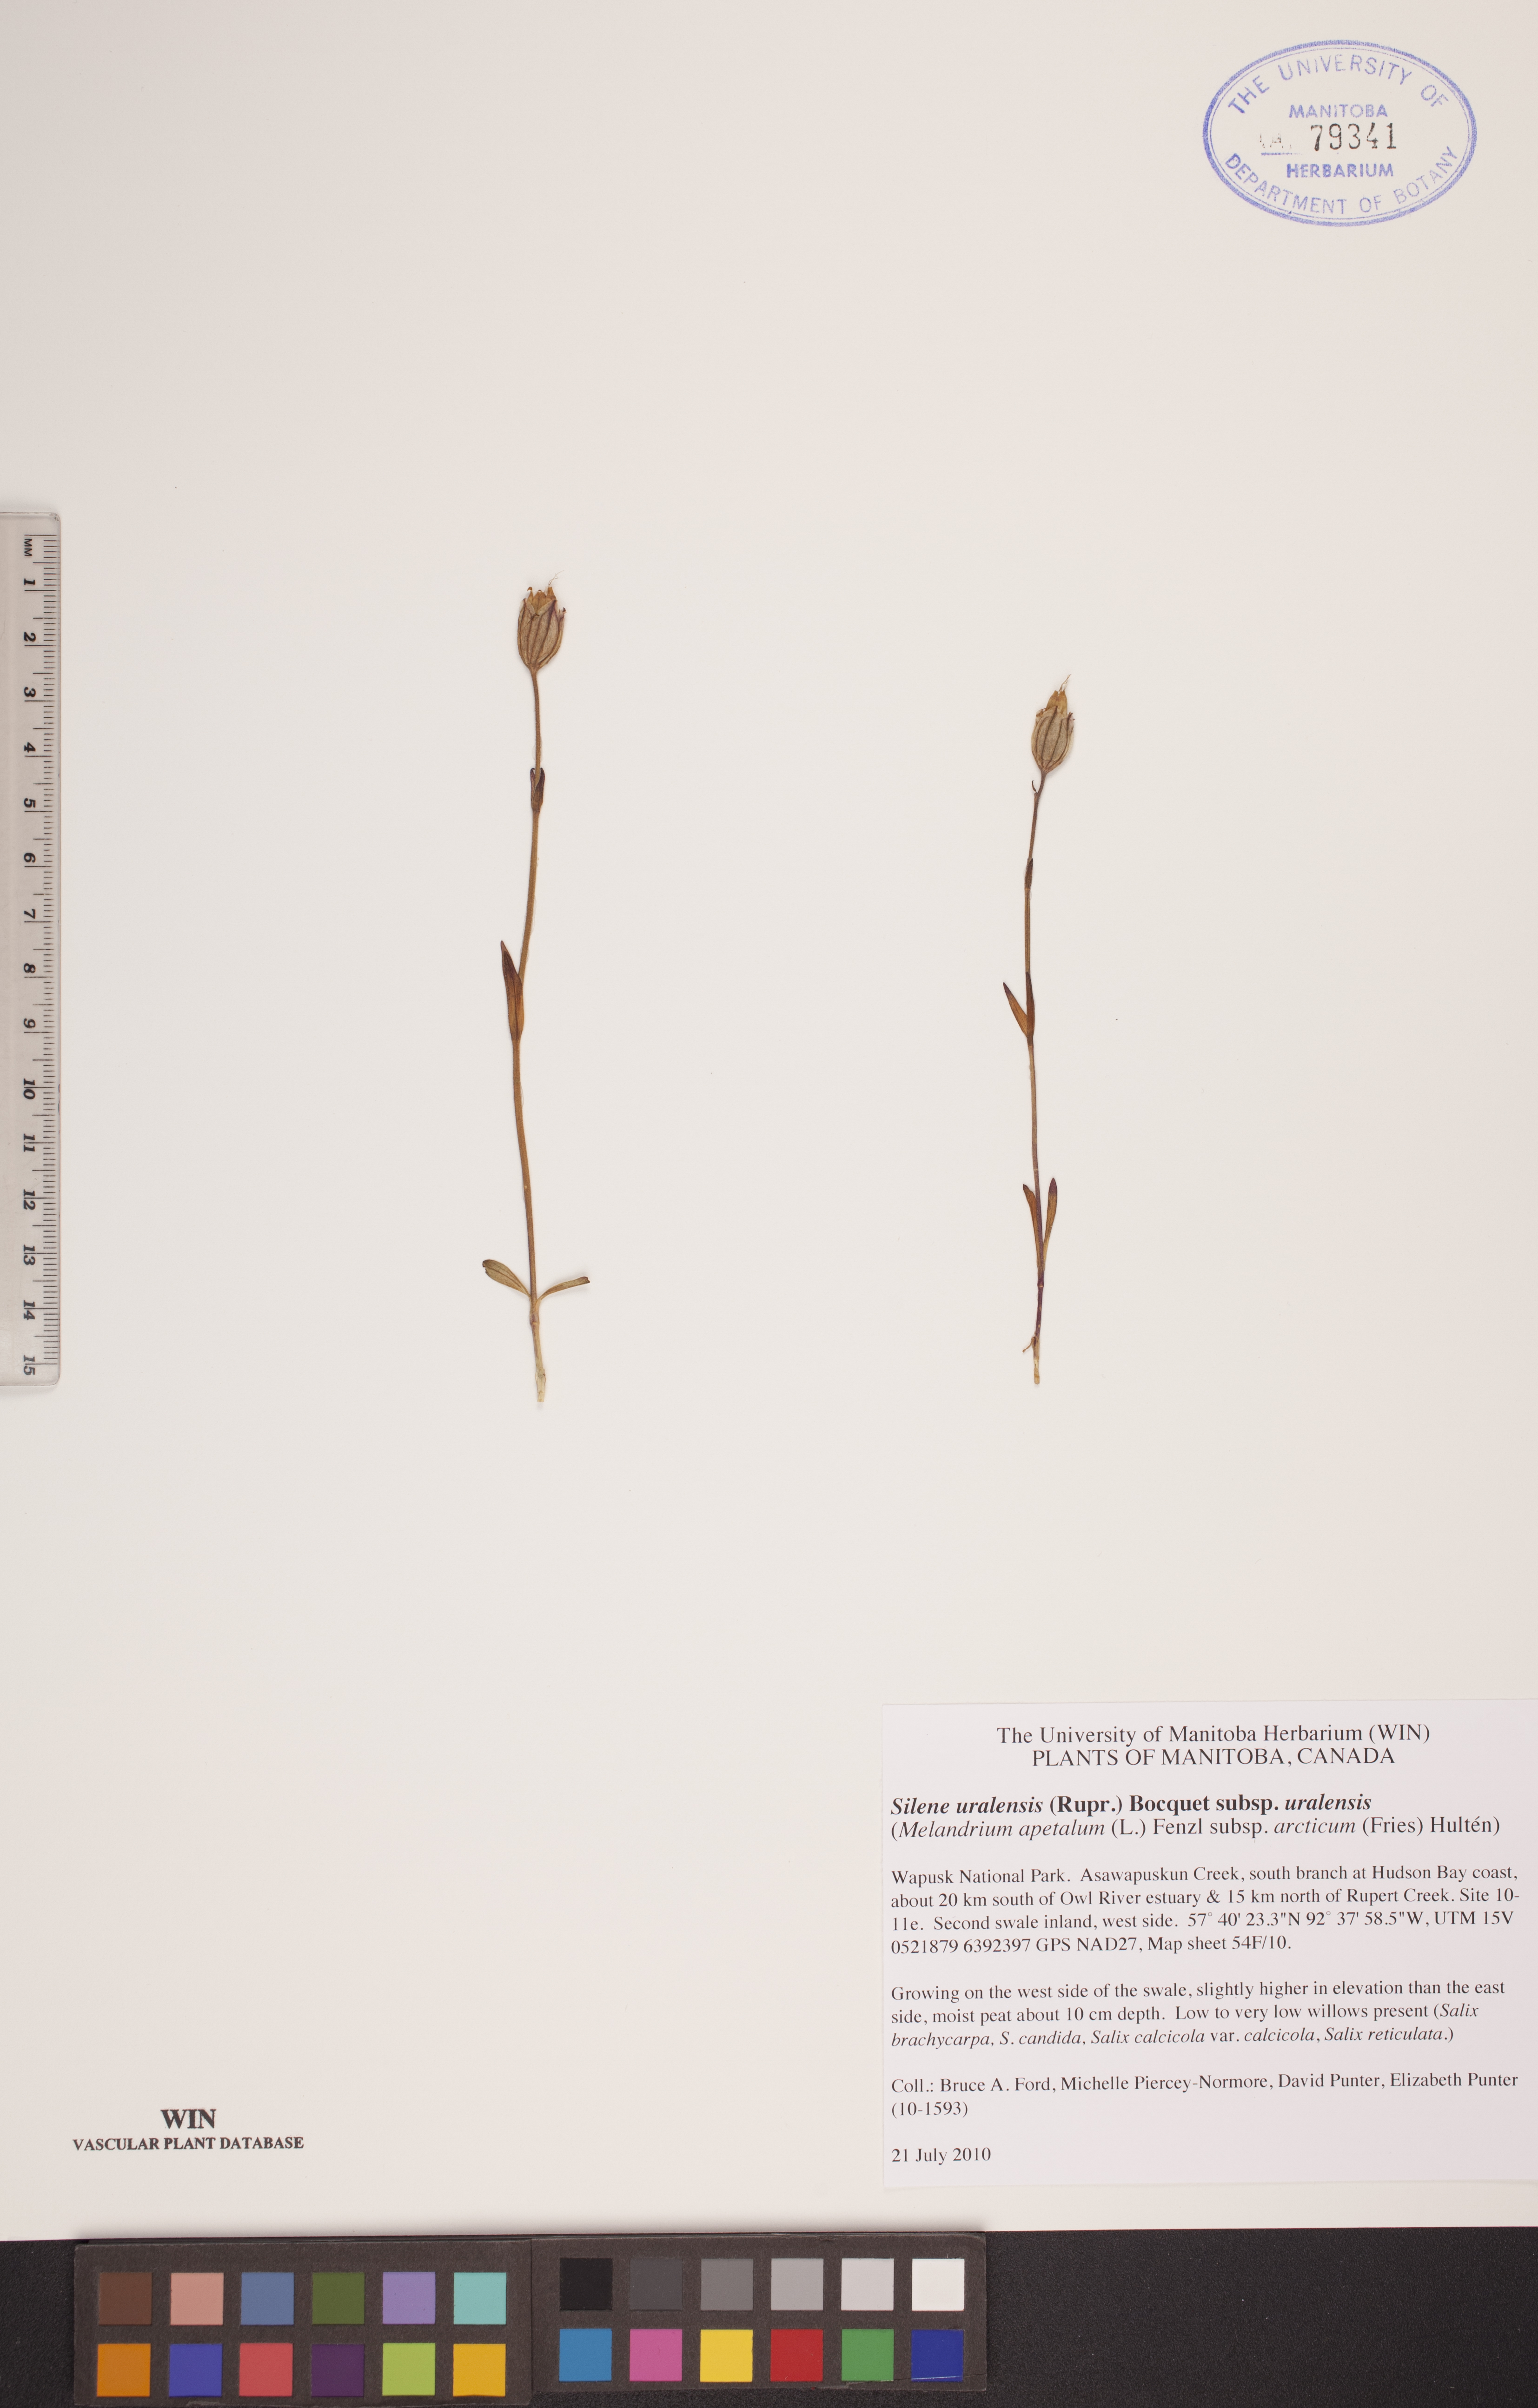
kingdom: Plantae
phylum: Tracheophyta
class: Magnoliopsida
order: Caryophyllales
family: Caryophyllaceae
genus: Silene
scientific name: Silene uralensis
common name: Nodding campion
